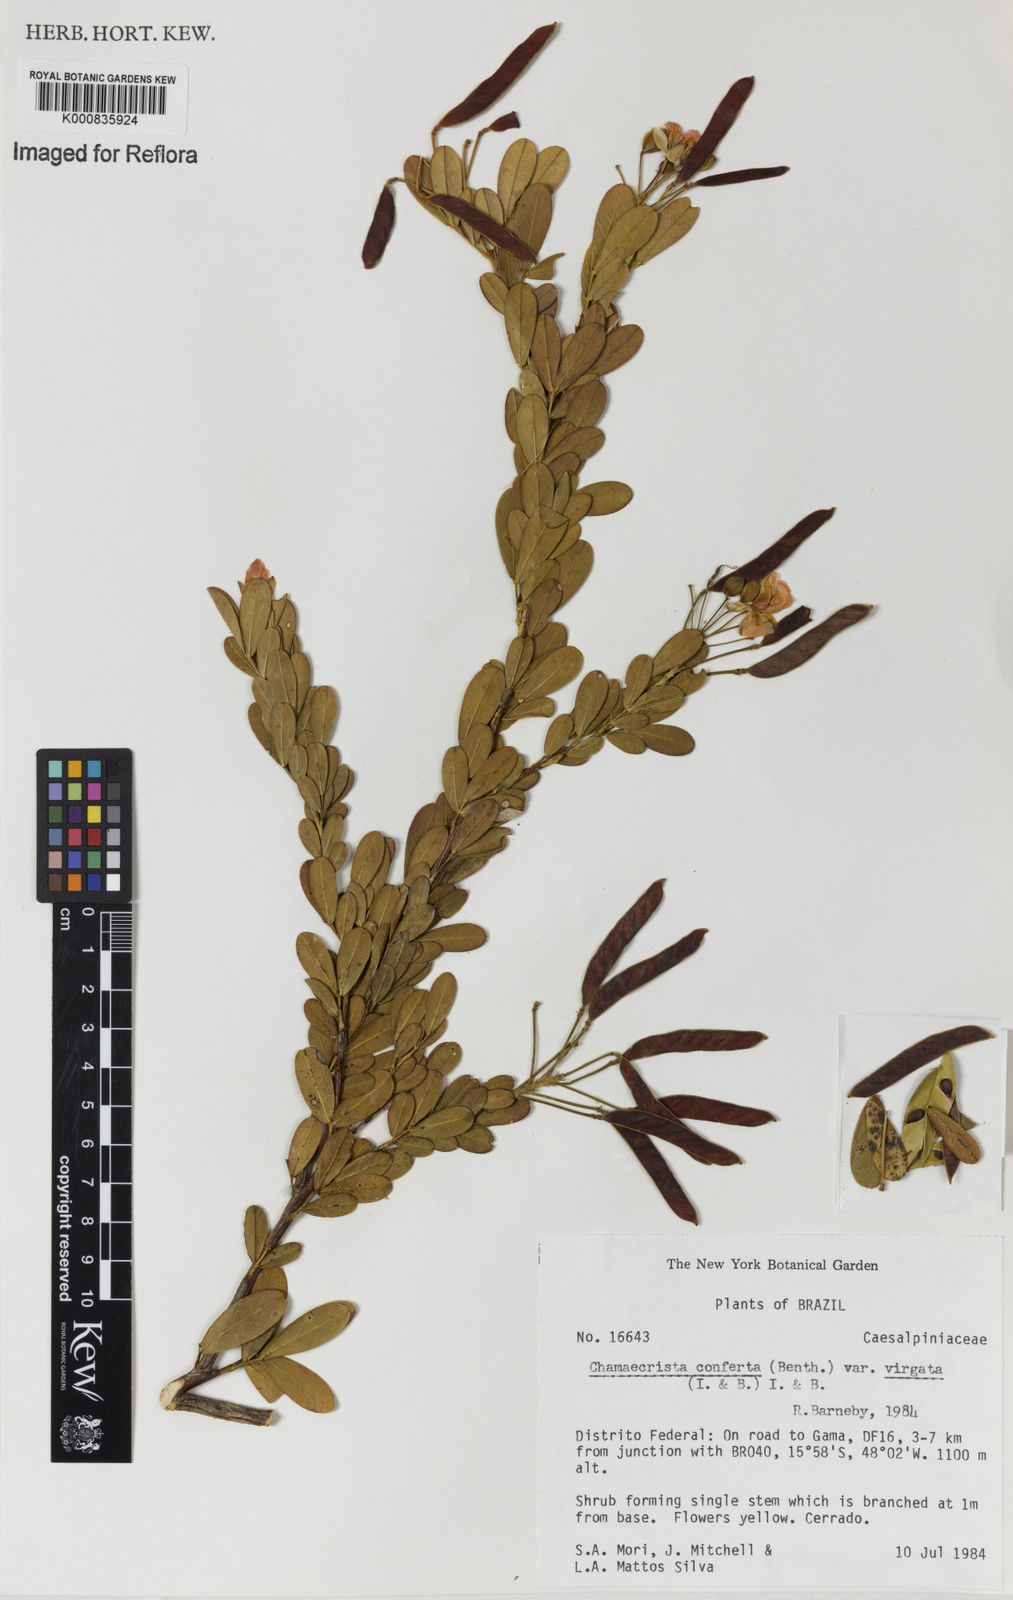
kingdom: Plantae
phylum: Tracheophyta
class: Magnoliopsida
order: Fabales
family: Fabaceae
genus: Chamaecrista
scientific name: Chamaecrista conferta
